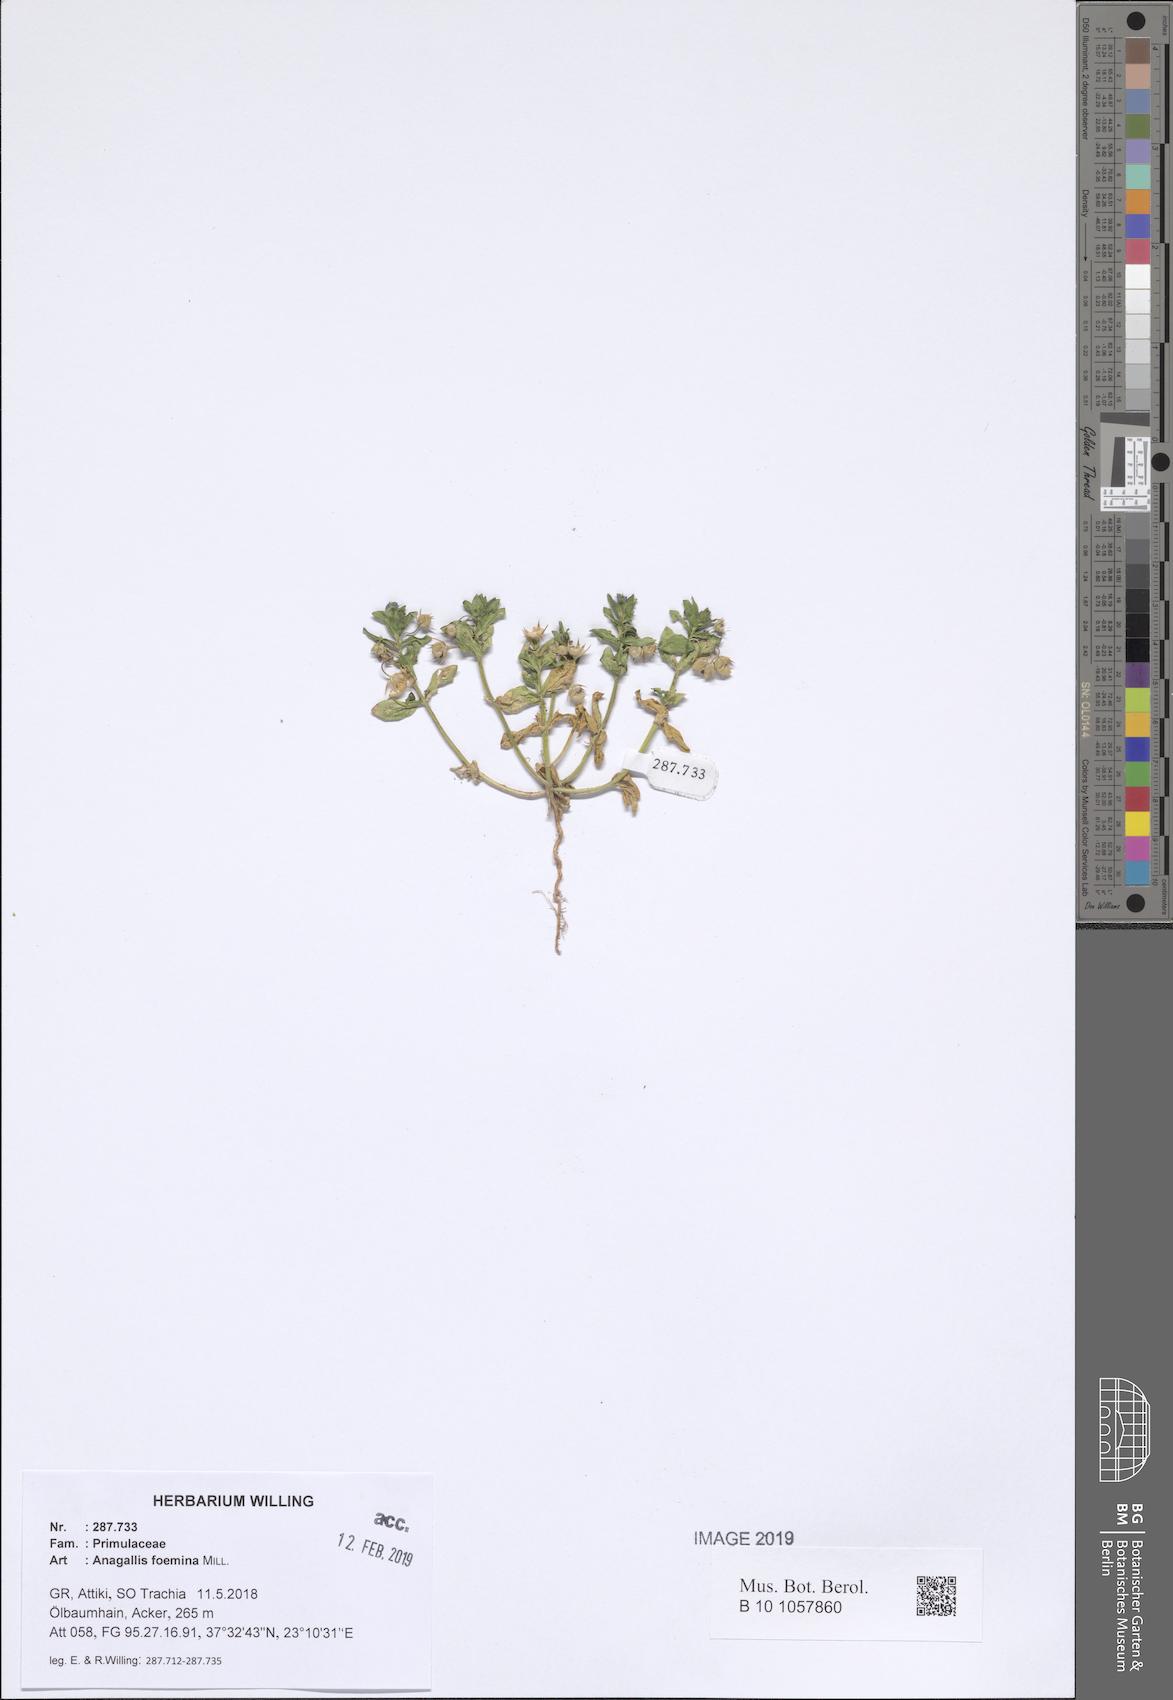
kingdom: Plantae
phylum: Tracheophyta
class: Magnoliopsida
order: Ericales
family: Primulaceae
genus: Lysimachia
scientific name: Lysimachia foemina
